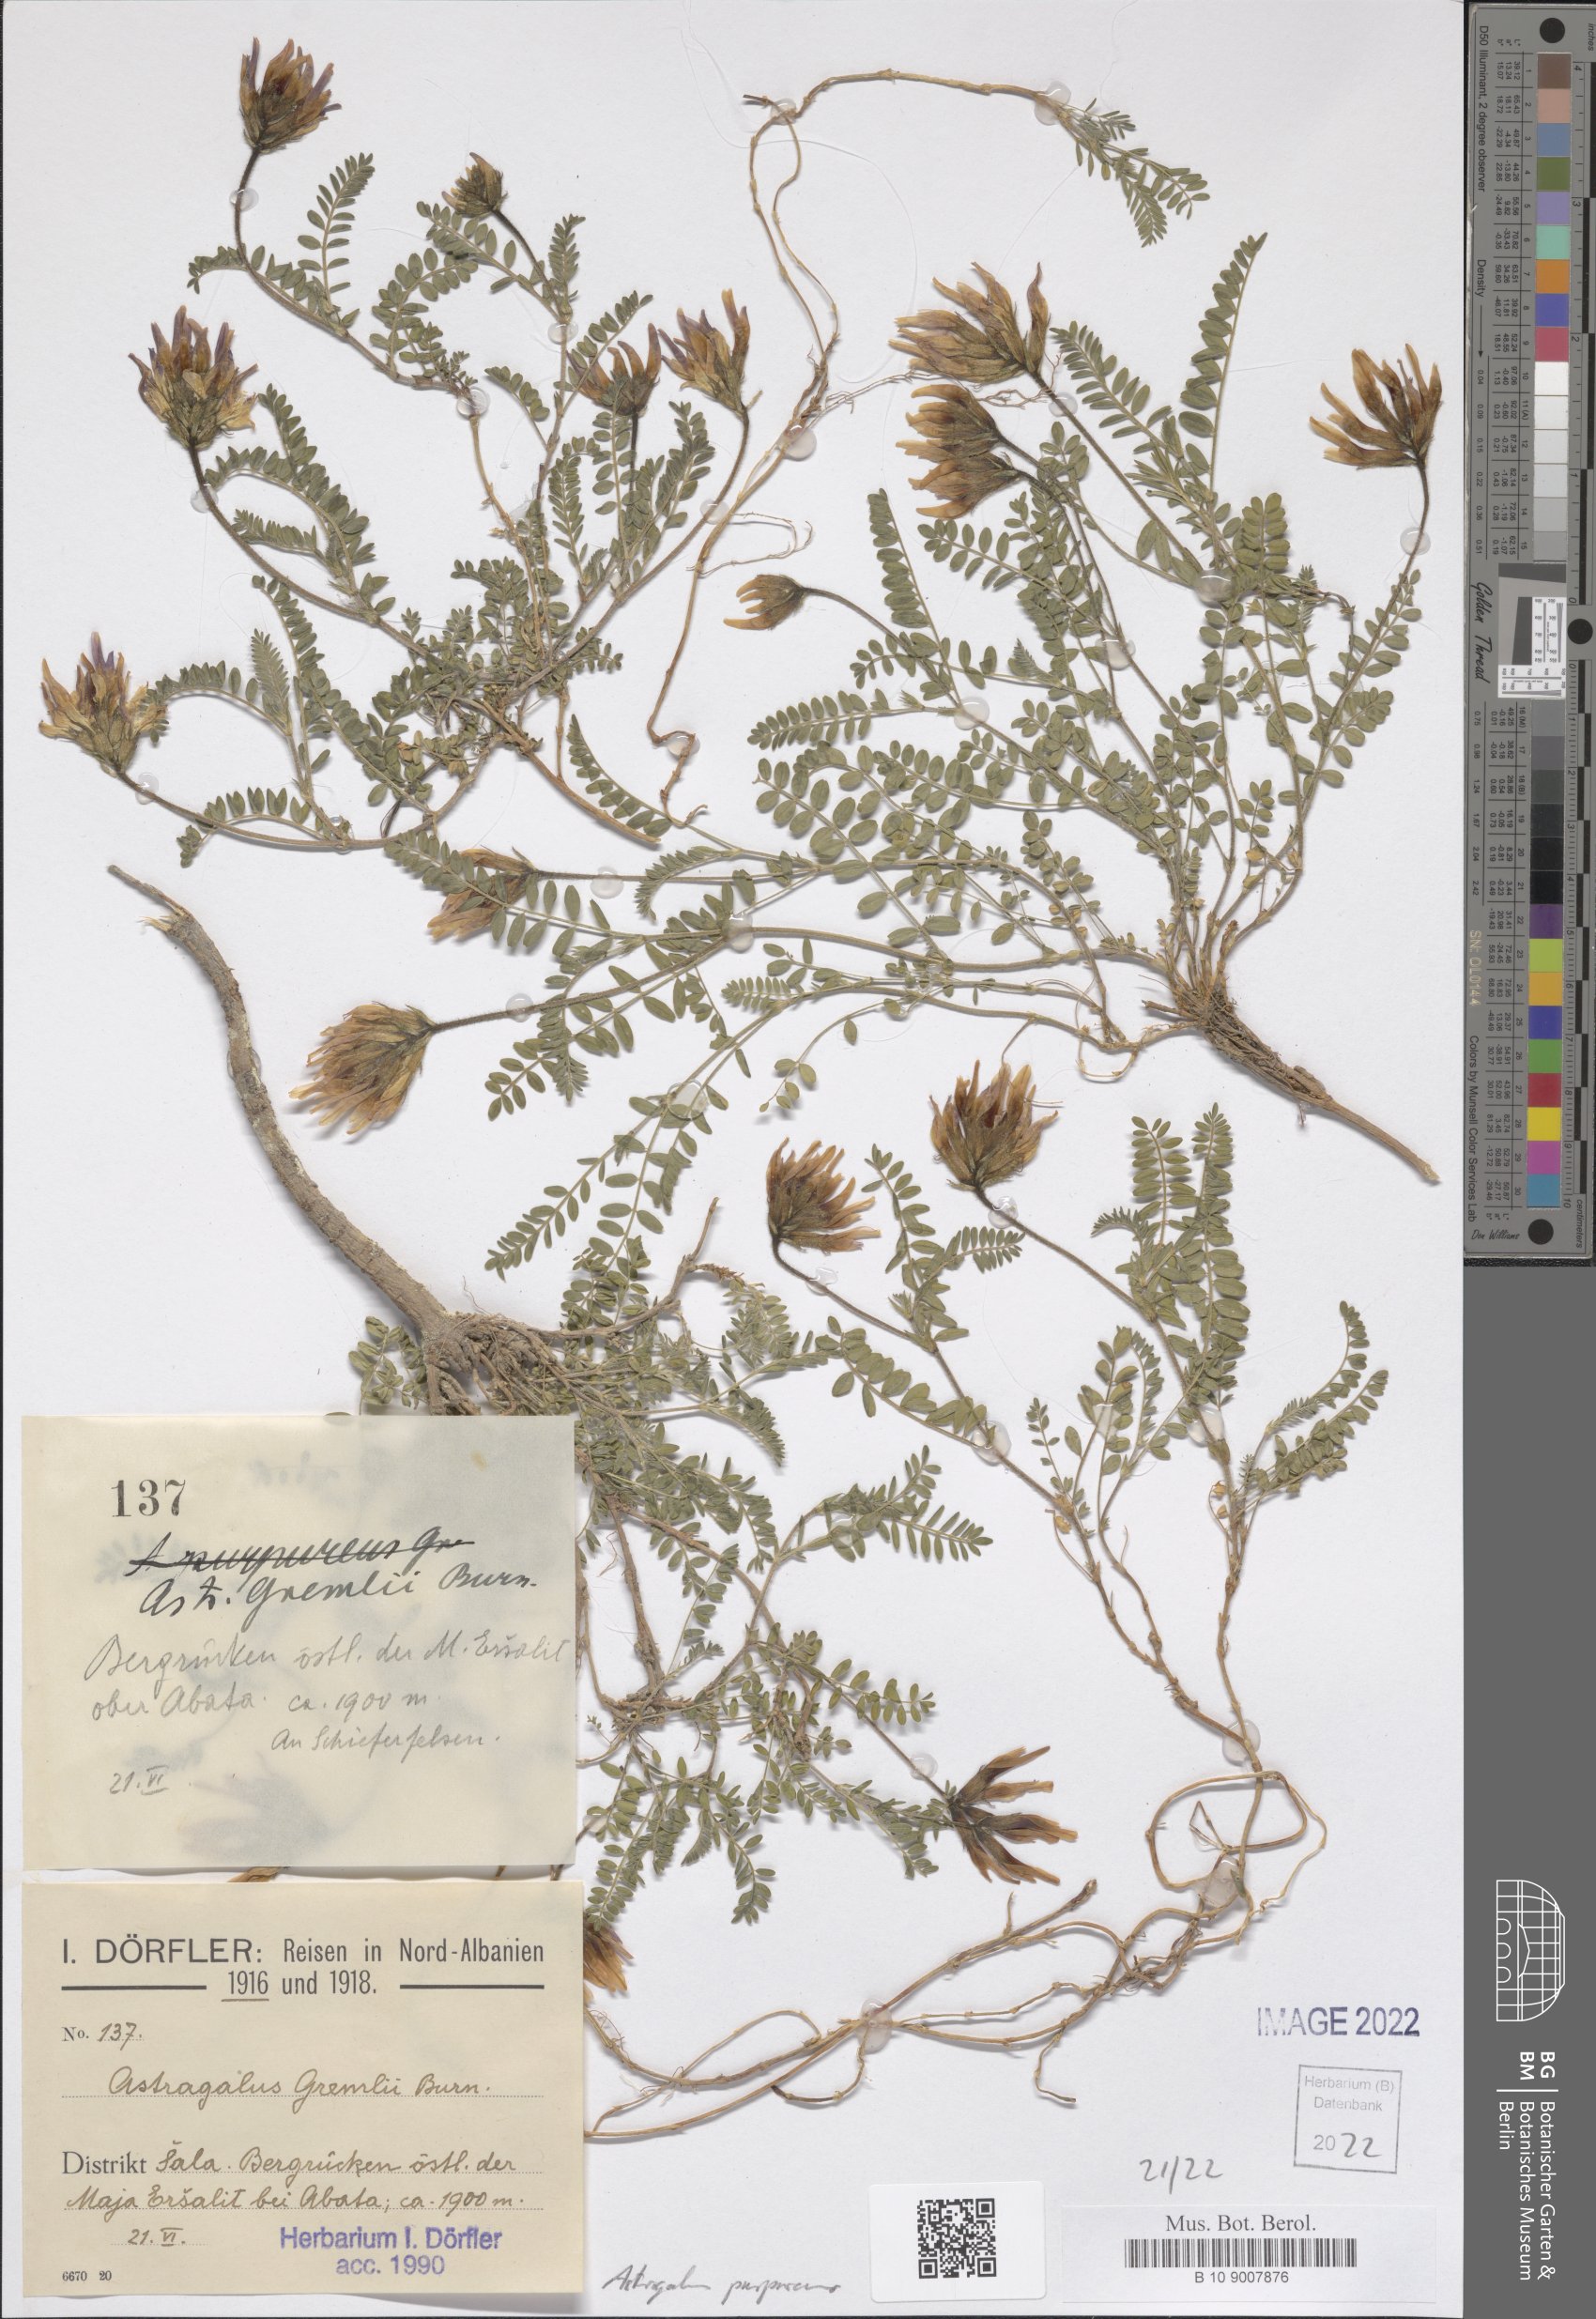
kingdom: Plantae
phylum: Tracheophyta
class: Magnoliopsida
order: Fabales
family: Fabaceae
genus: Astragalus
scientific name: Astragalus hypoglottis
